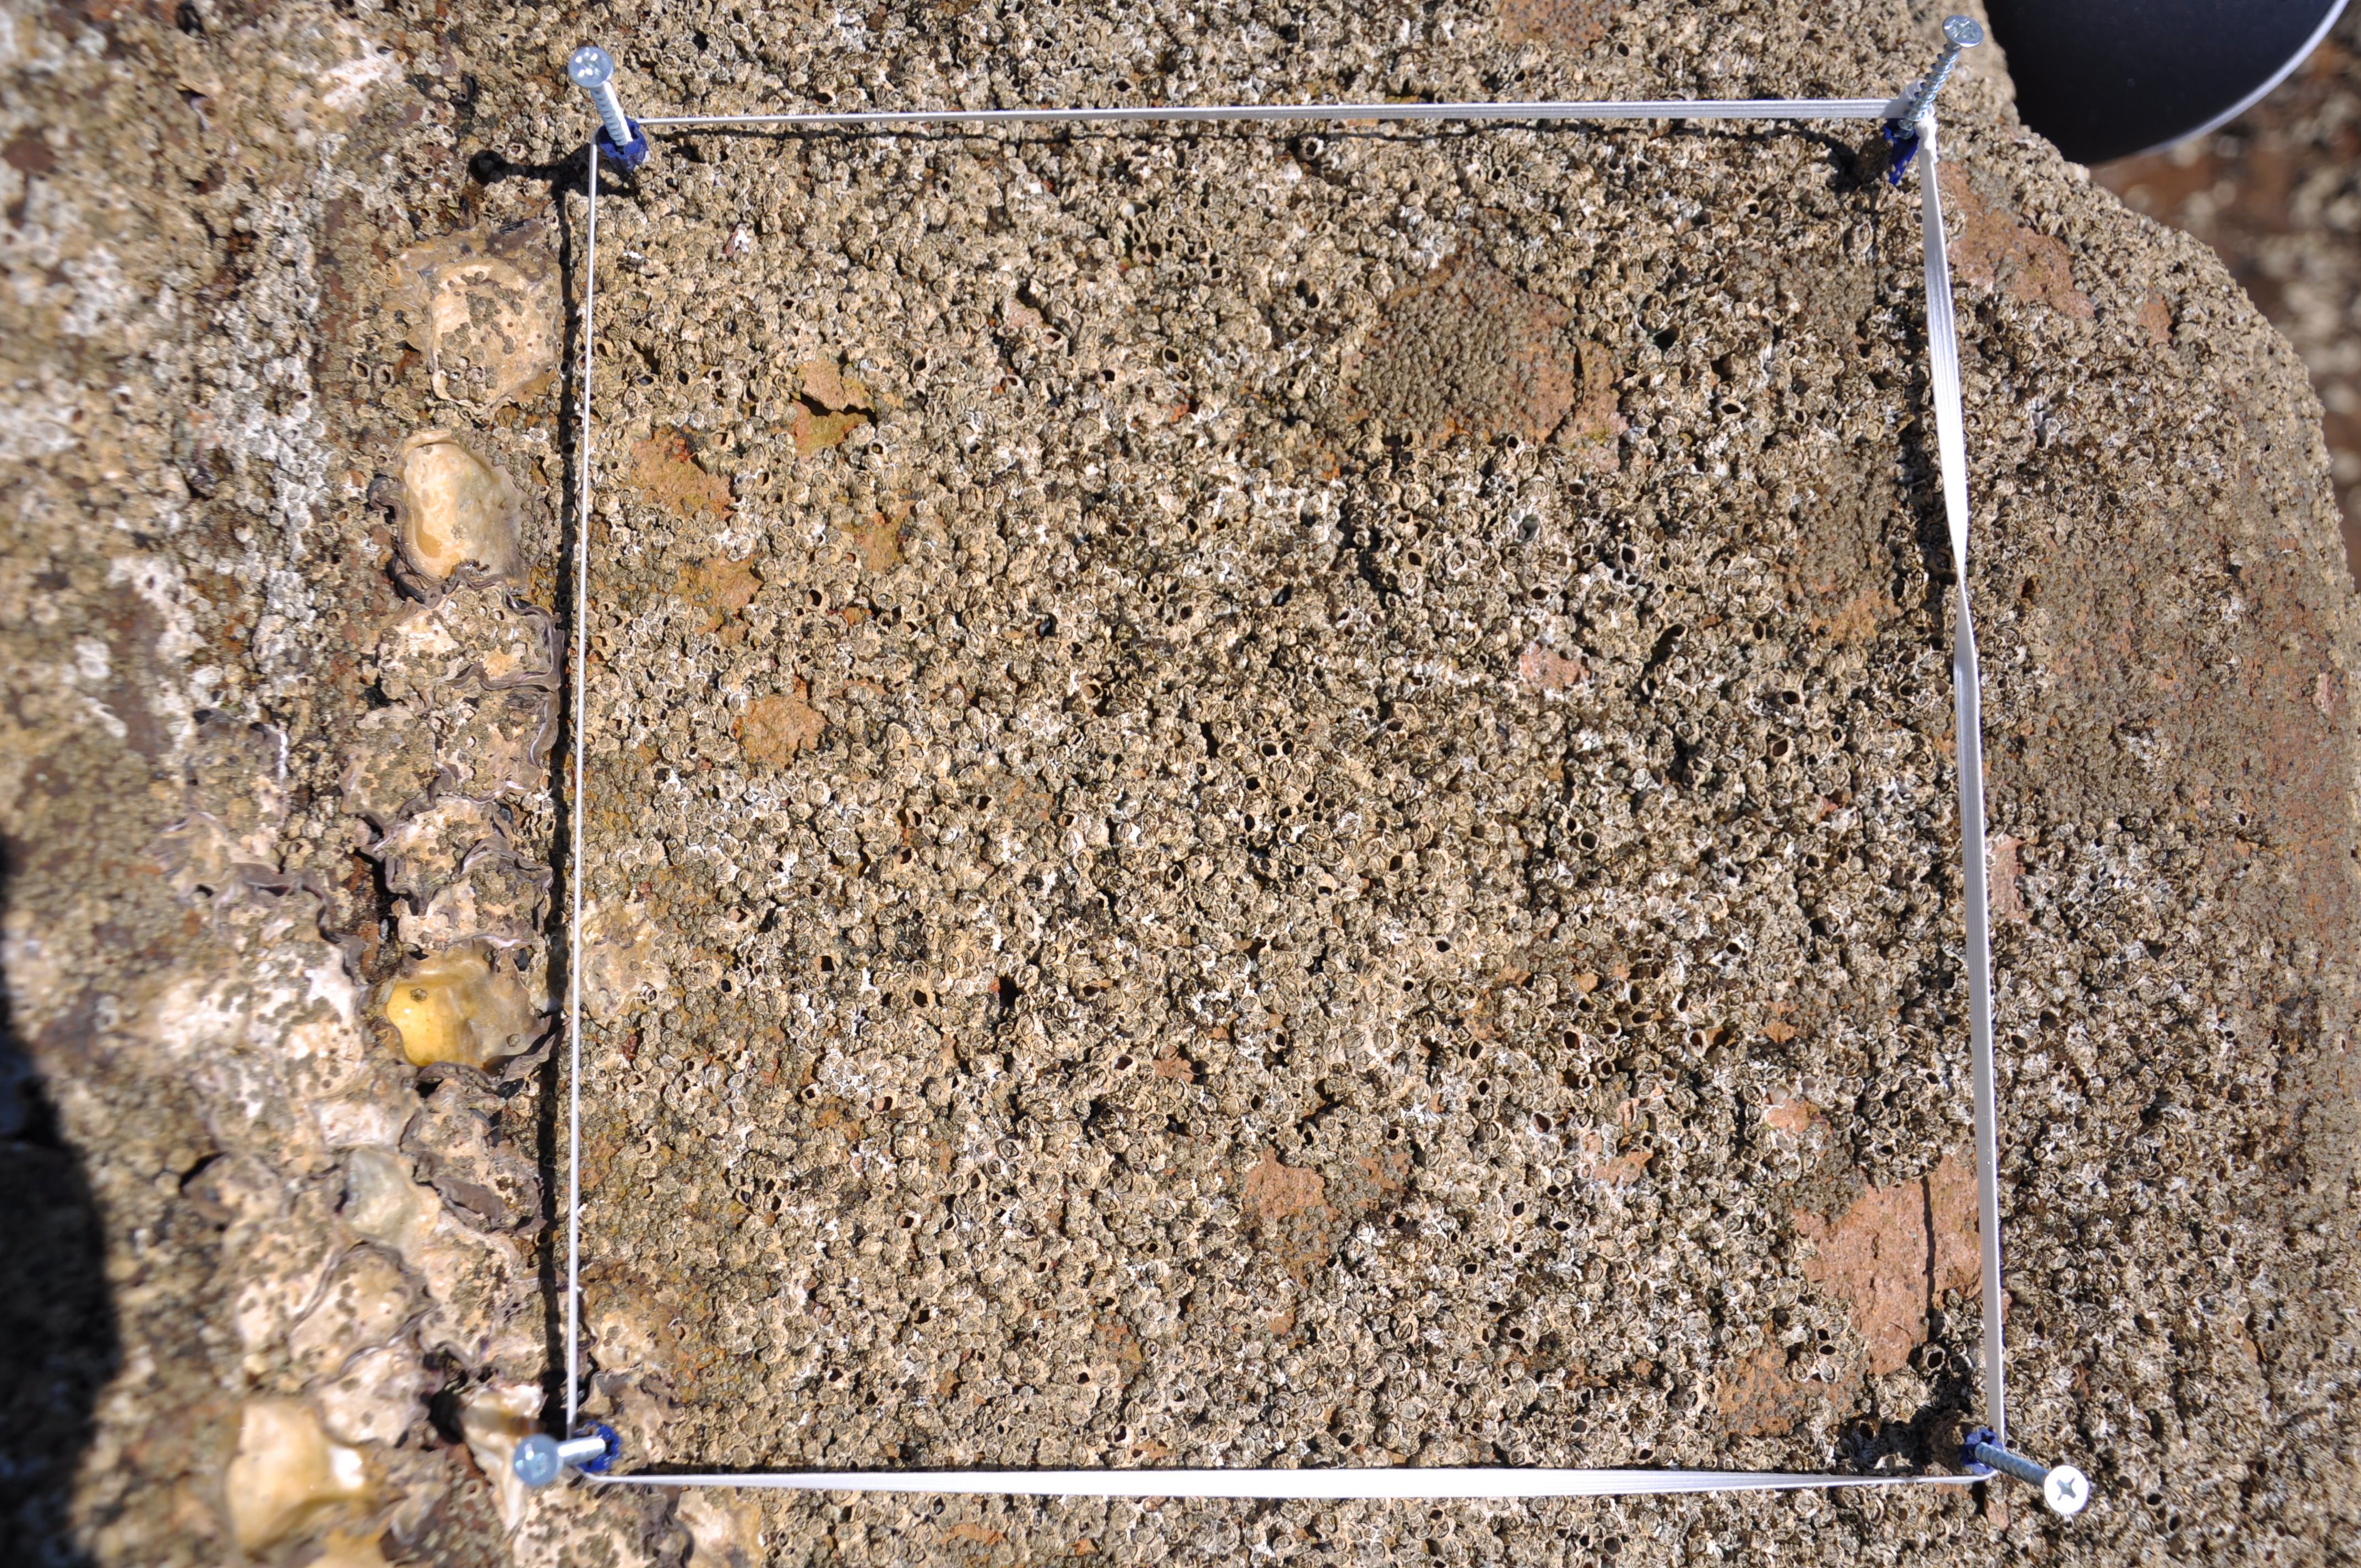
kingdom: Animalia
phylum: Arthropoda
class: Maxillopoda
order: Sessilia
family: Chthamalidae
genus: Chthamalus
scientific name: Chthamalus challengeri
